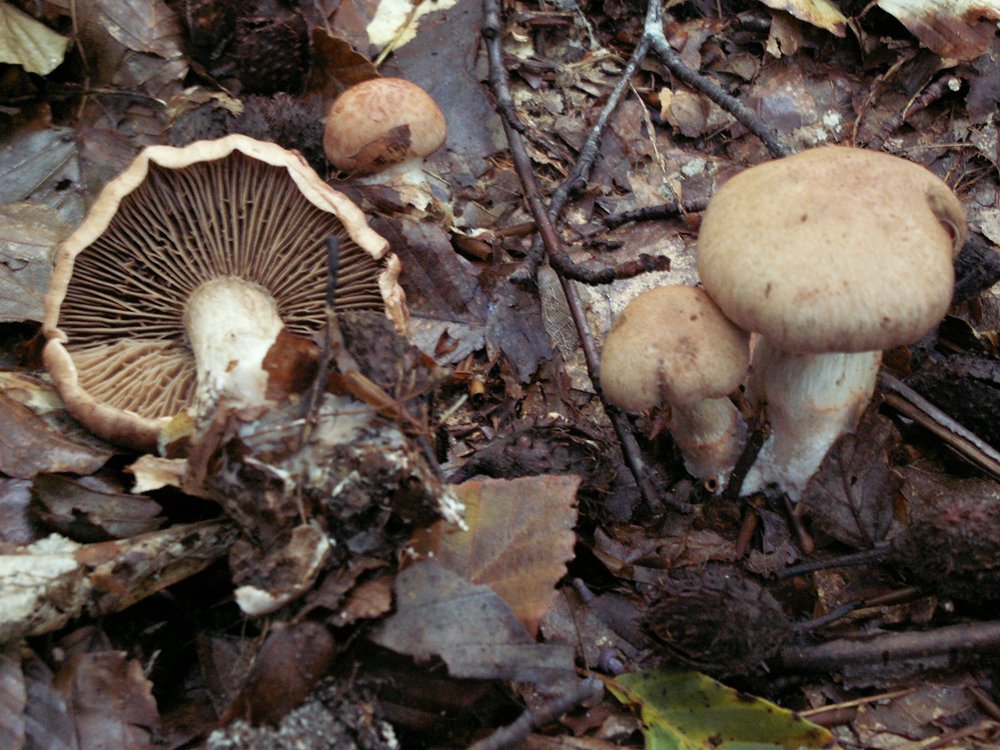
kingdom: Fungi
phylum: Basidiomycota
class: Agaricomycetes
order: Agaricales
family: Cortinariaceae
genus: Cortinarius
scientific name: Cortinarius roseoarmillatus
